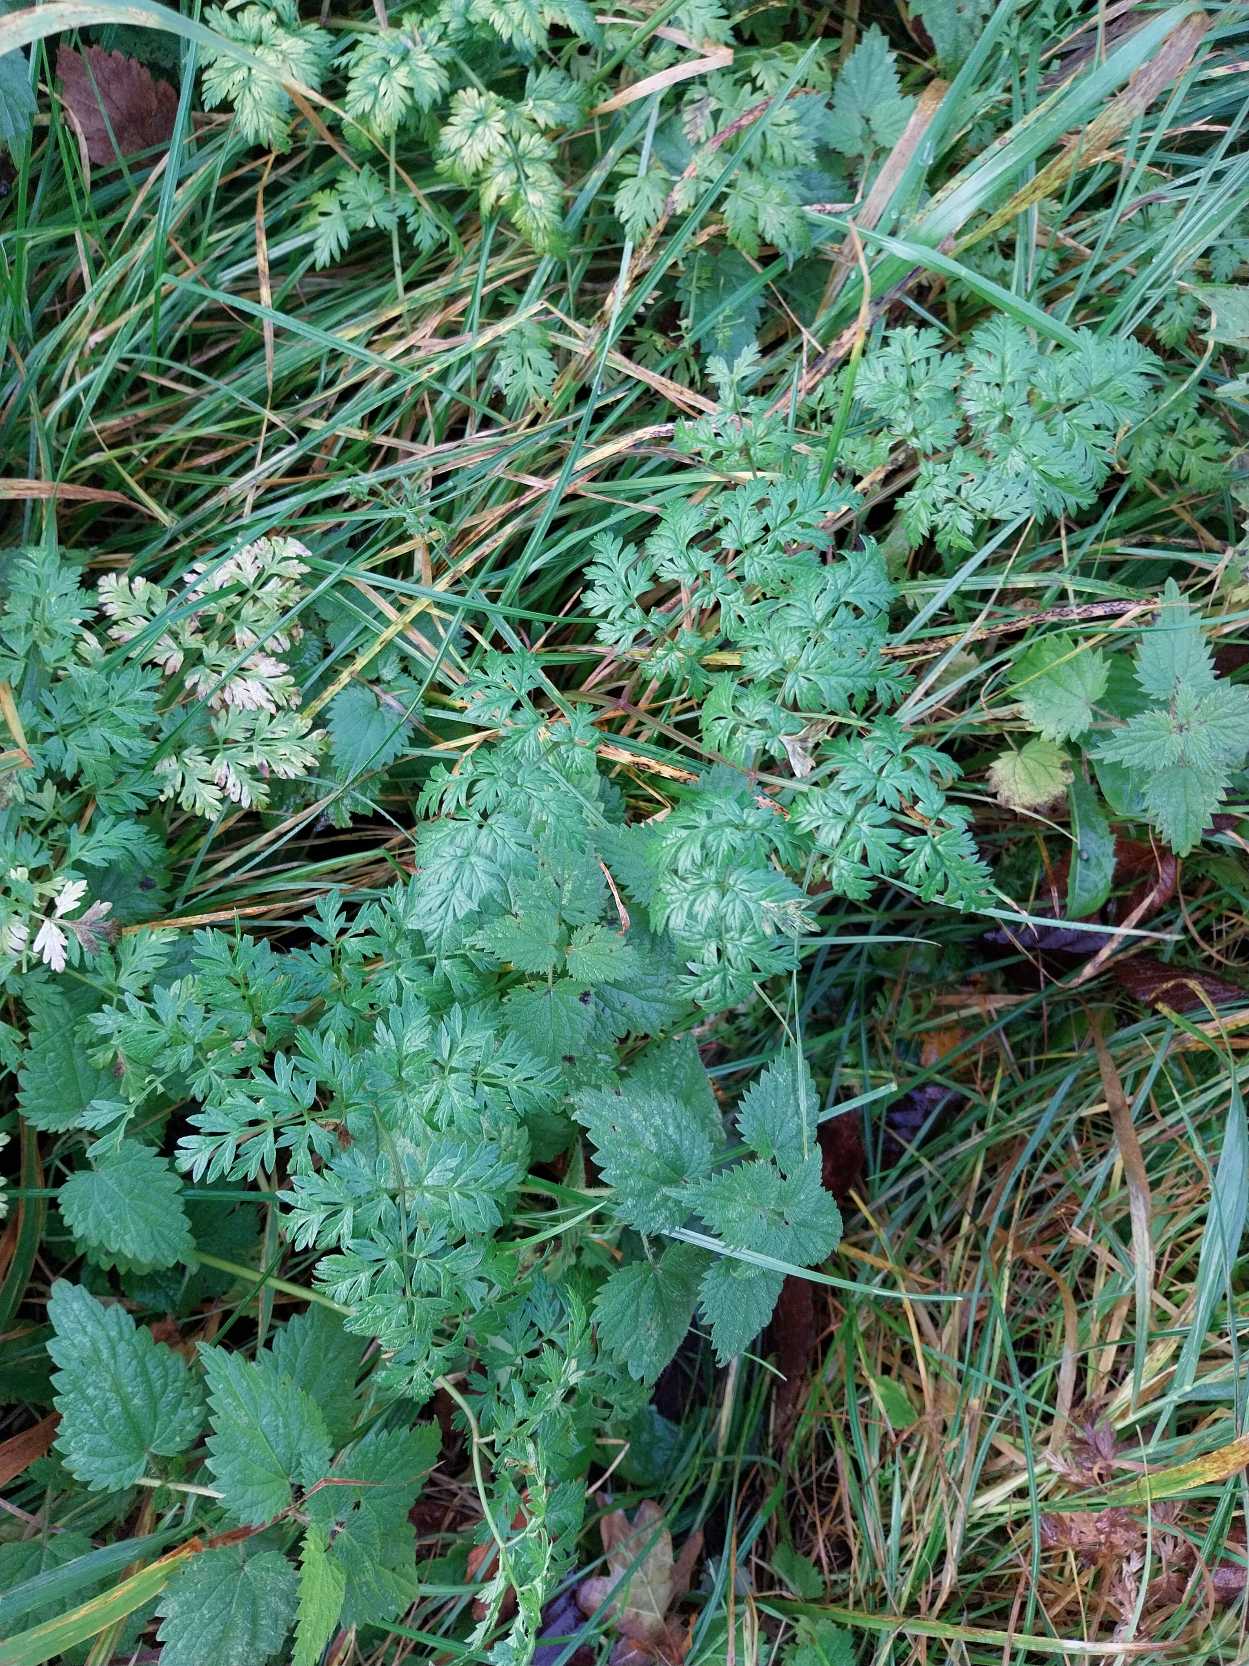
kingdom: Plantae
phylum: Tracheophyta
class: Magnoliopsida
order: Apiales
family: Apiaceae
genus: Anthriscus
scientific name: Anthriscus sylvestris
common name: Vild kørvel
